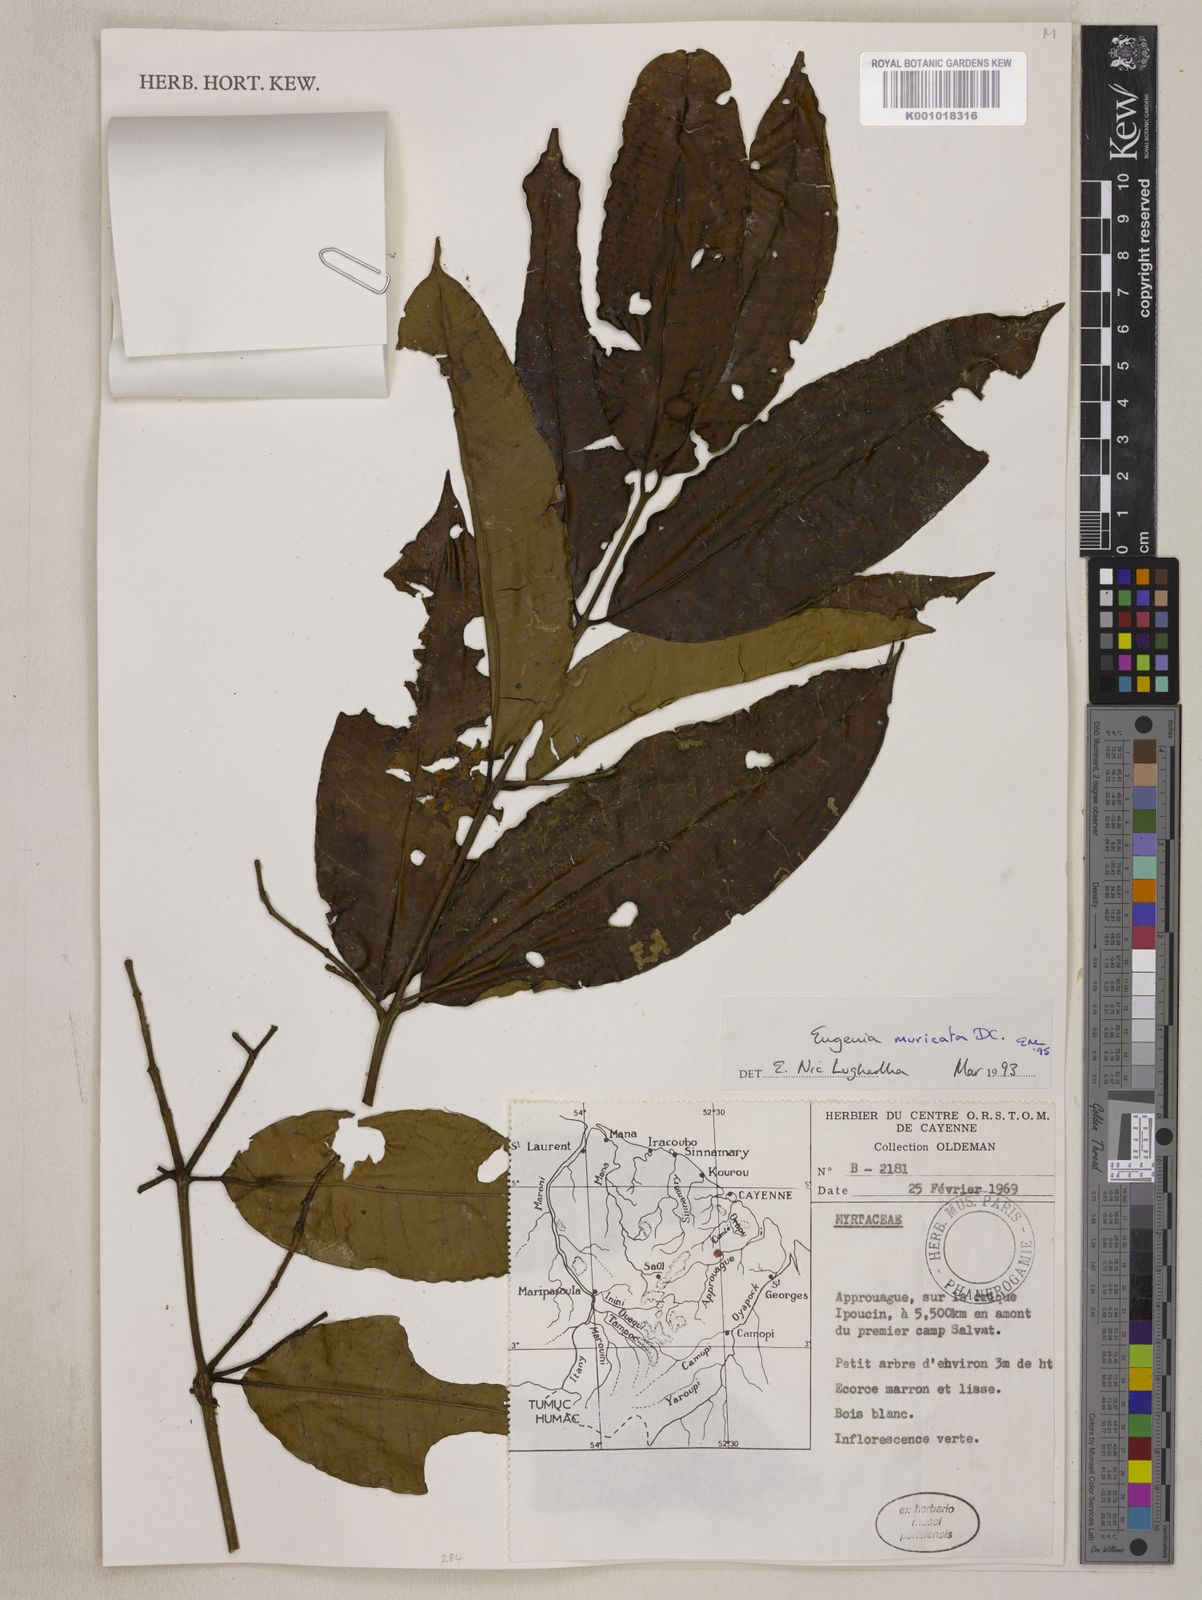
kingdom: Plantae
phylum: Tracheophyta
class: Magnoliopsida
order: Myrtales
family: Myrtaceae
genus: Eugenia
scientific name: Eugenia muricata
